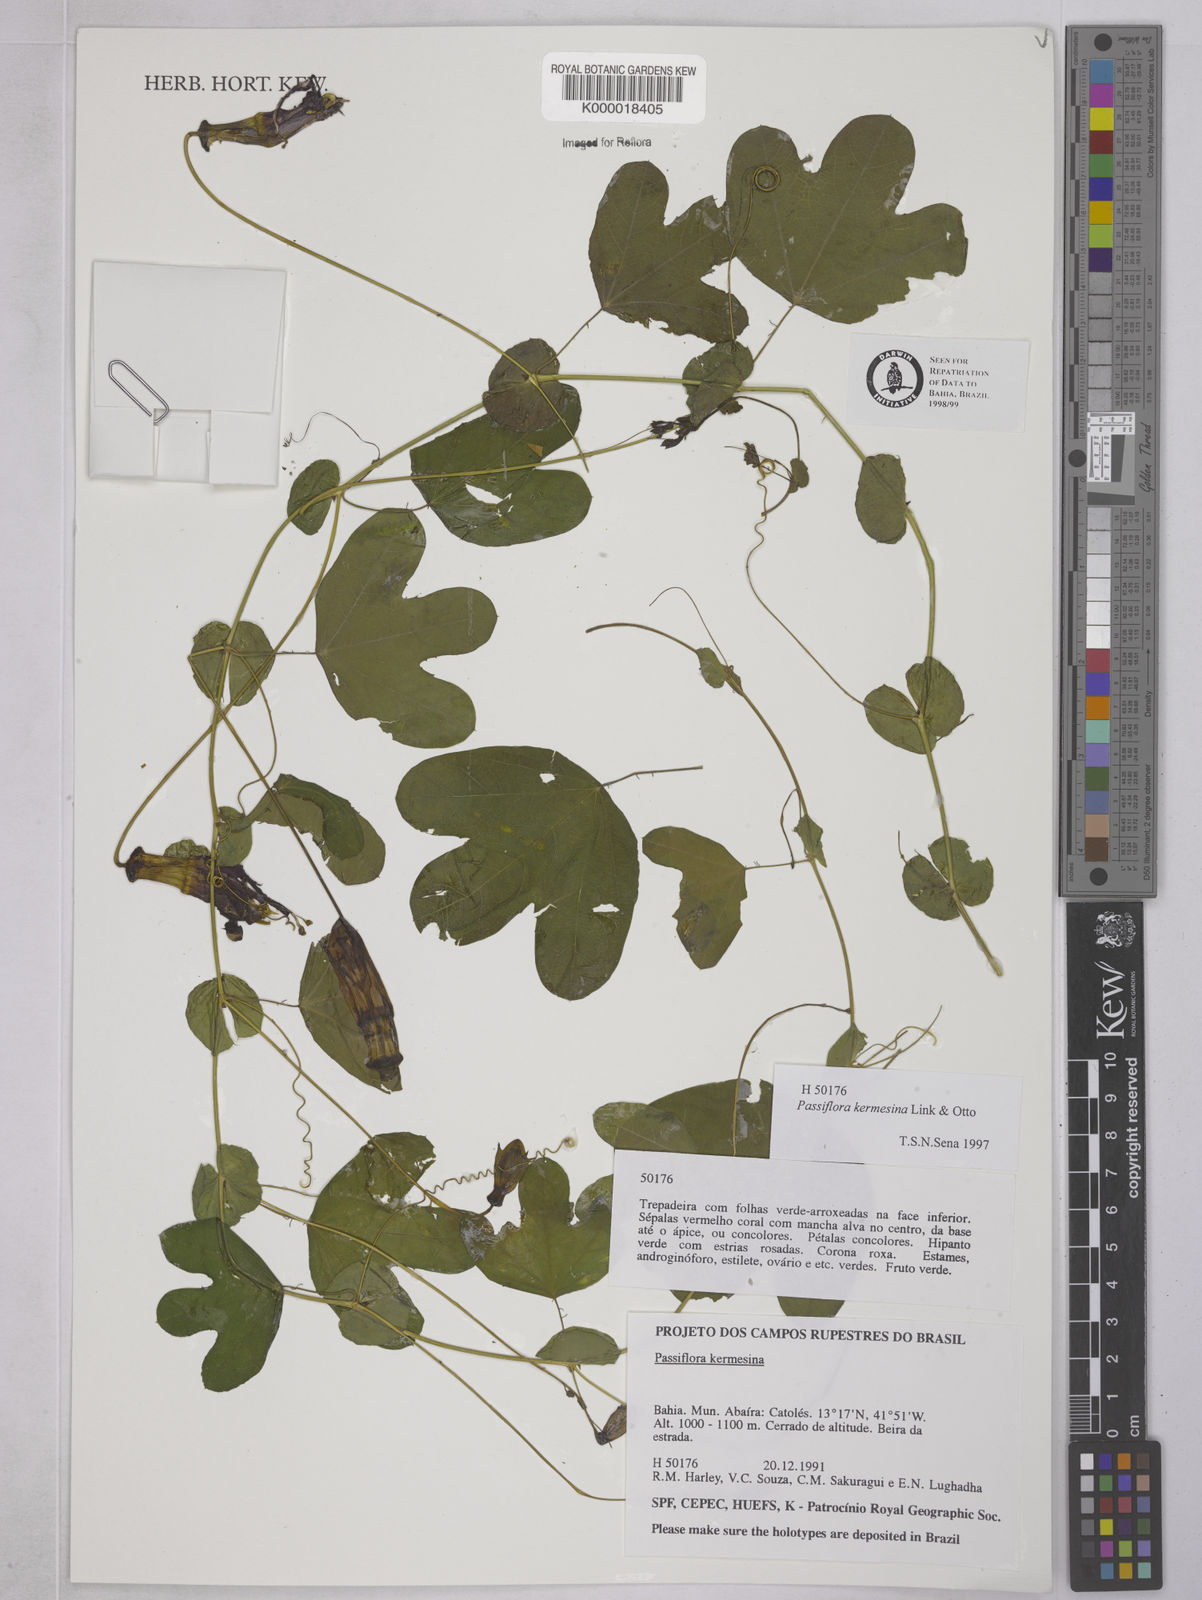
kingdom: Plantae
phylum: Tracheophyta
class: Magnoliopsida
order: Malpighiales
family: Passifloraceae
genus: Passiflora
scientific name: Passiflora kermesina
